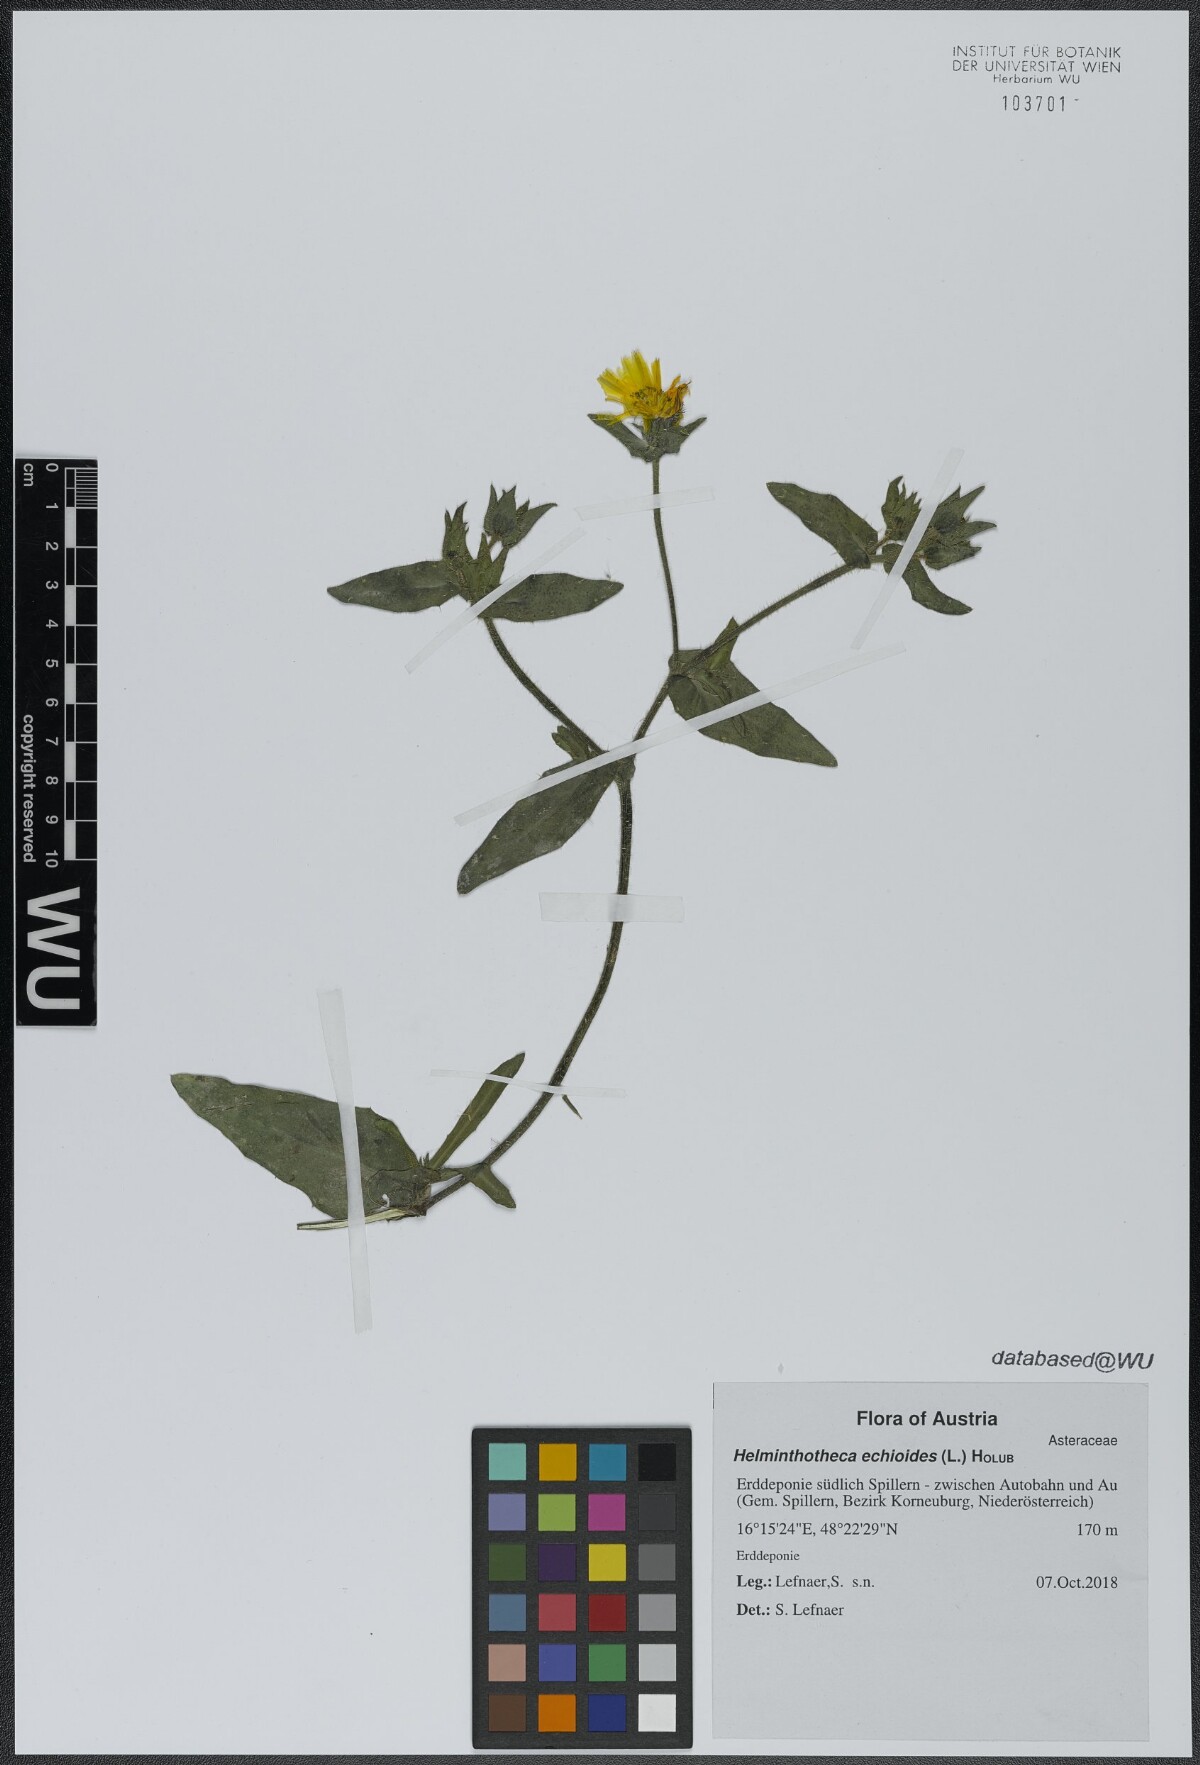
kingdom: Plantae
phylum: Tracheophyta
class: Magnoliopsida
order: Asterales
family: Asteraceae
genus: Helminthotheca
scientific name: Helminthotheca echioides
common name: Ox-tongue
